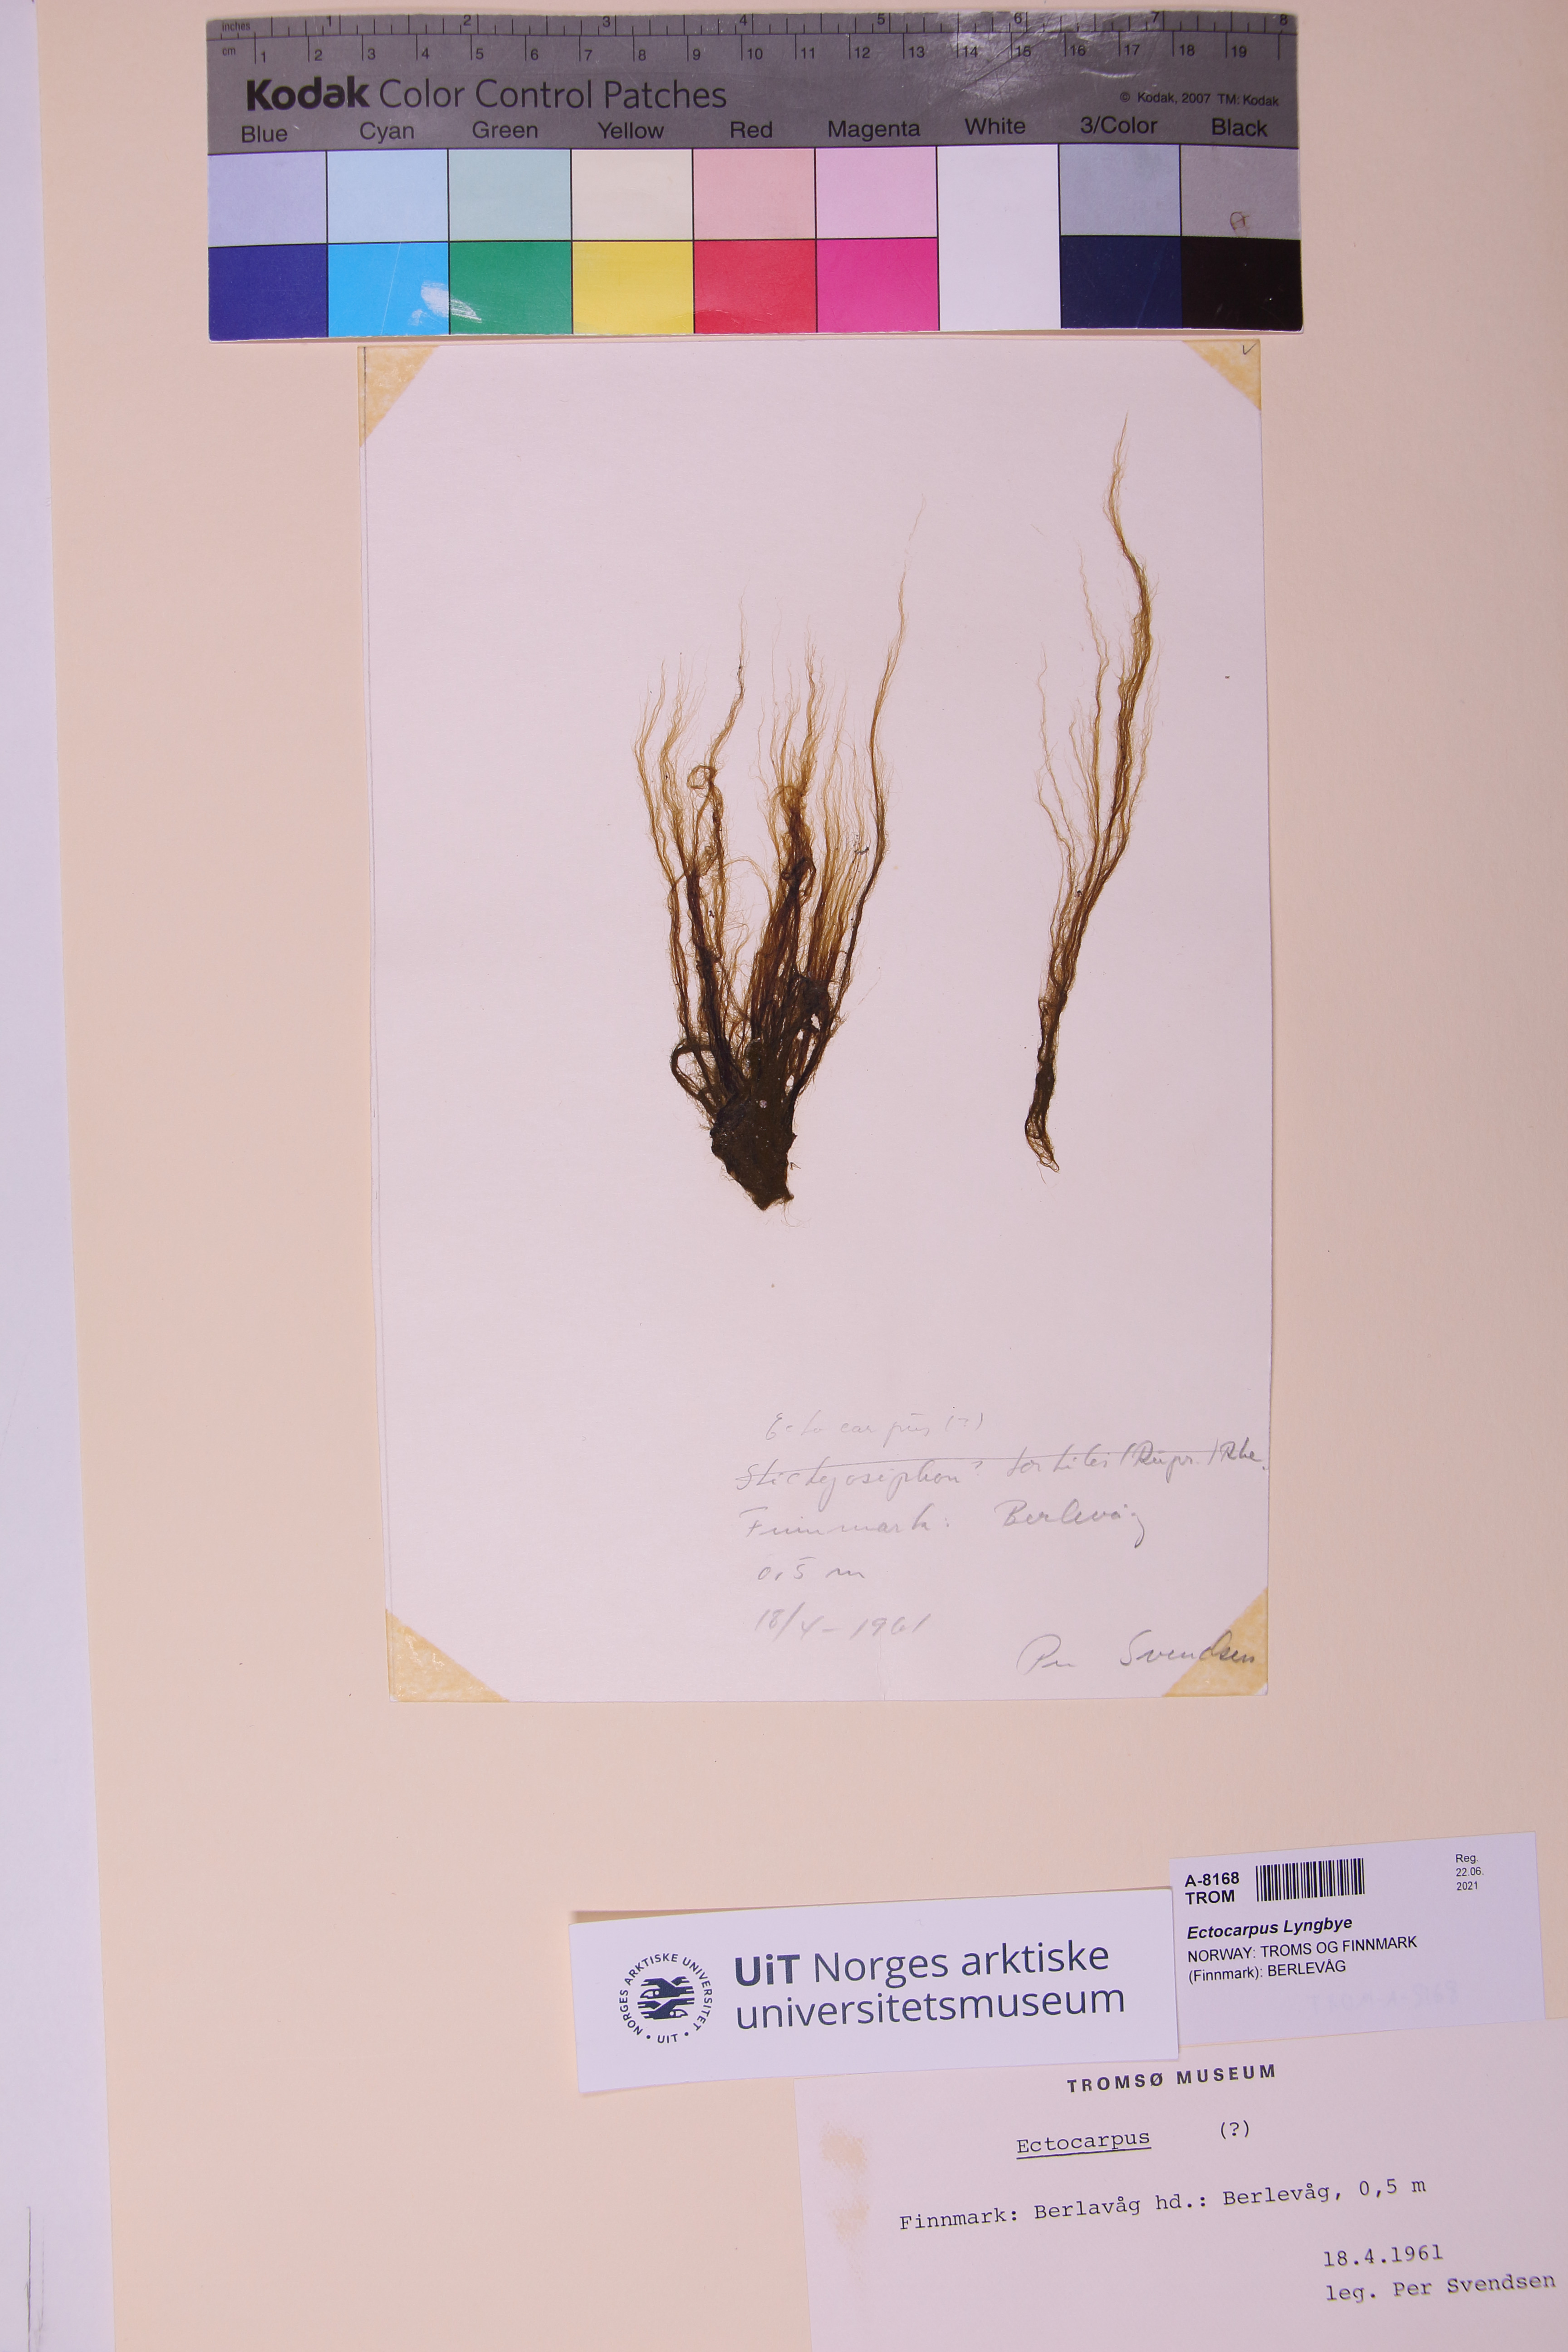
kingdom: Chromista
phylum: Ochrophyta
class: Phaeophyceae
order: Ectocarpales
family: Ectocarpaceae
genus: Ectocarpus
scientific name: Ectocarpus
